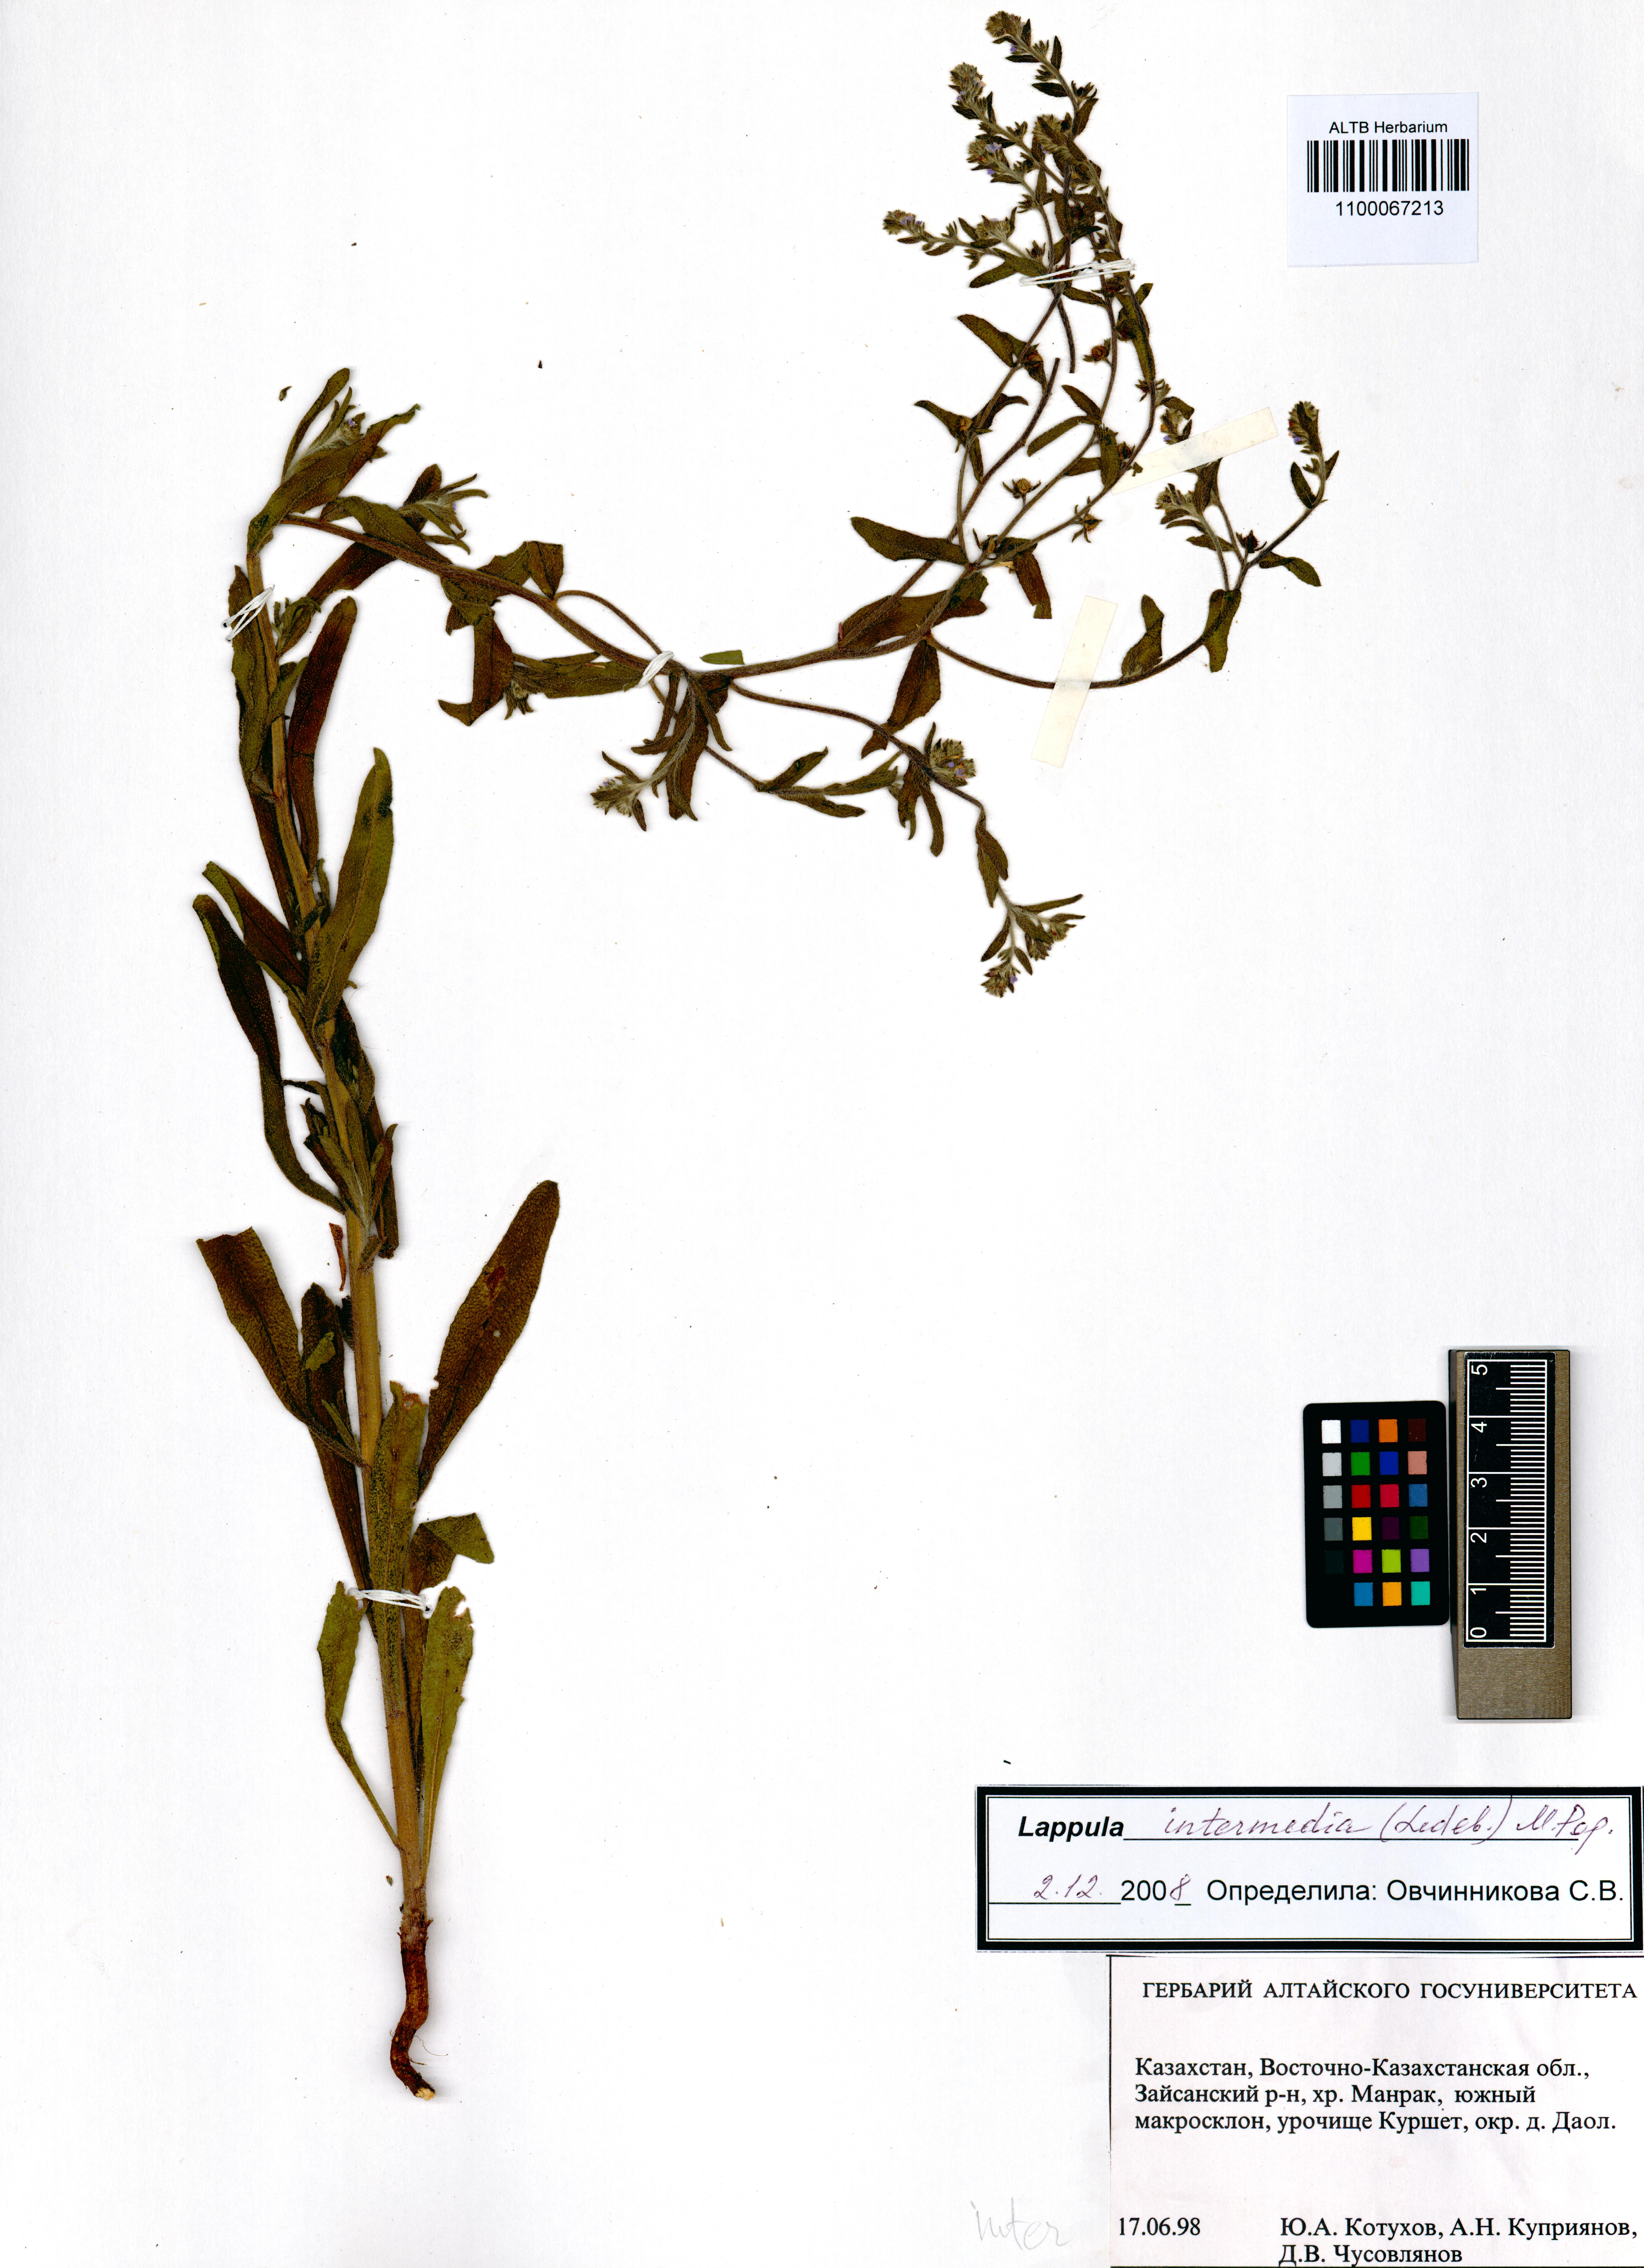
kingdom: Plantae
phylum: Tracheophyta
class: Magnoliopsida
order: Boraginales
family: Boraginaceae
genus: Lappula
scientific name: Lappula intermedia
